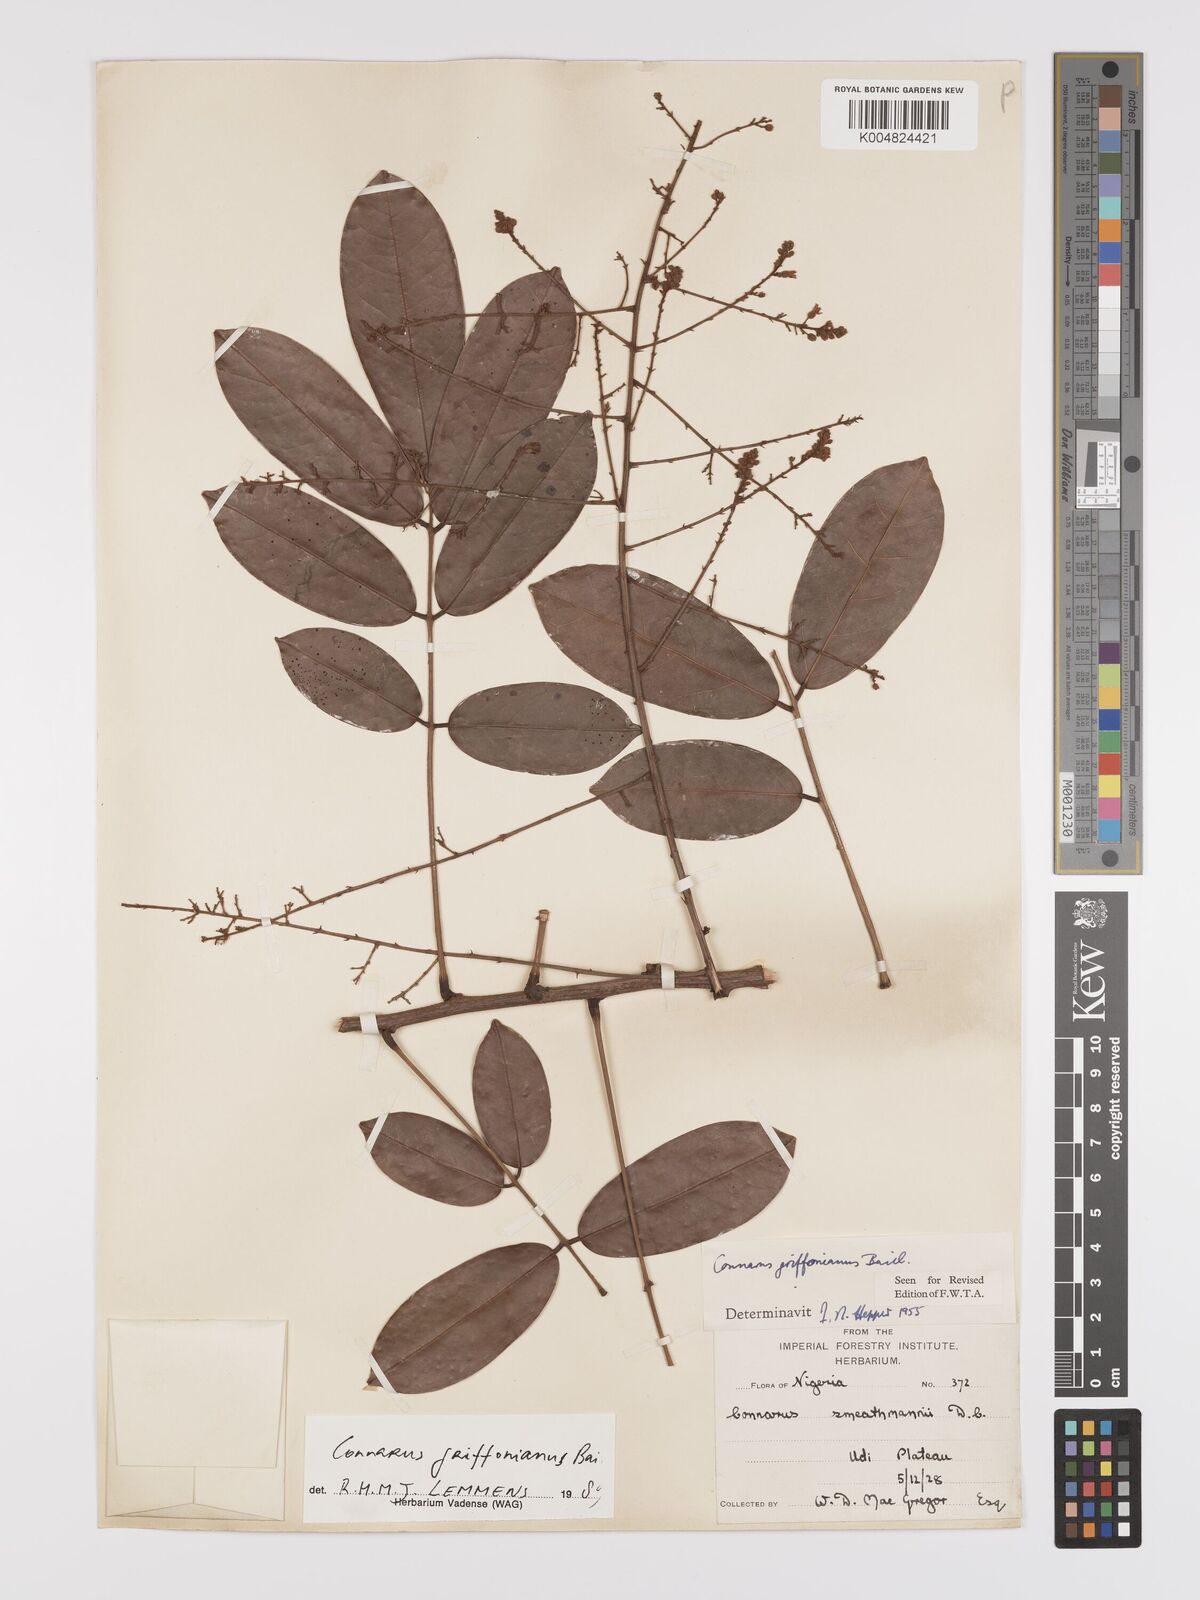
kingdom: Plantae
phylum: Tracheophyta
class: Magnoliopsida
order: Oxalidales
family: Connaraceae
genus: Connarus
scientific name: Connarus griffonianus
